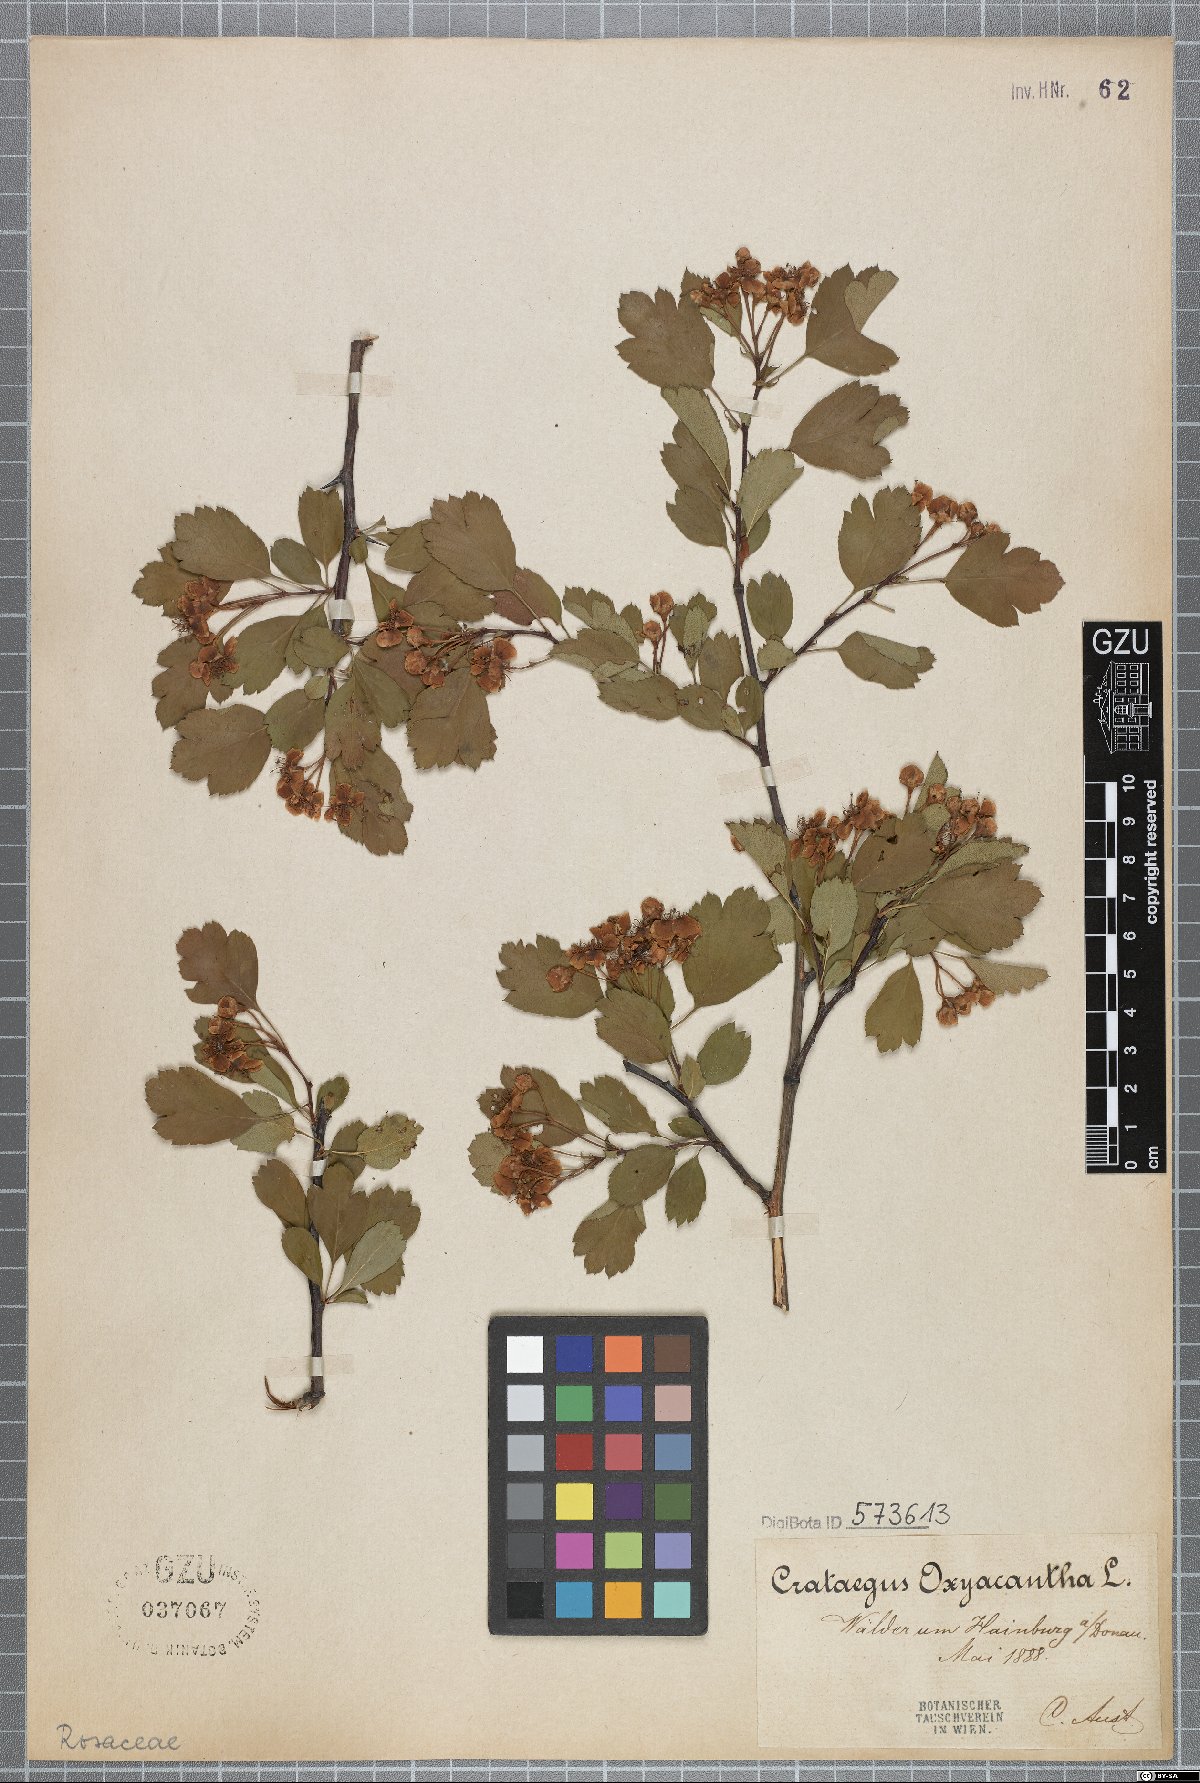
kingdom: Plantae
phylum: Tracheophyta
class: Magnoliopsida
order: Rosales
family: Rosaceae
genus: Crataegus
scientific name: Crataegus monogyna
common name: Hawthorn
